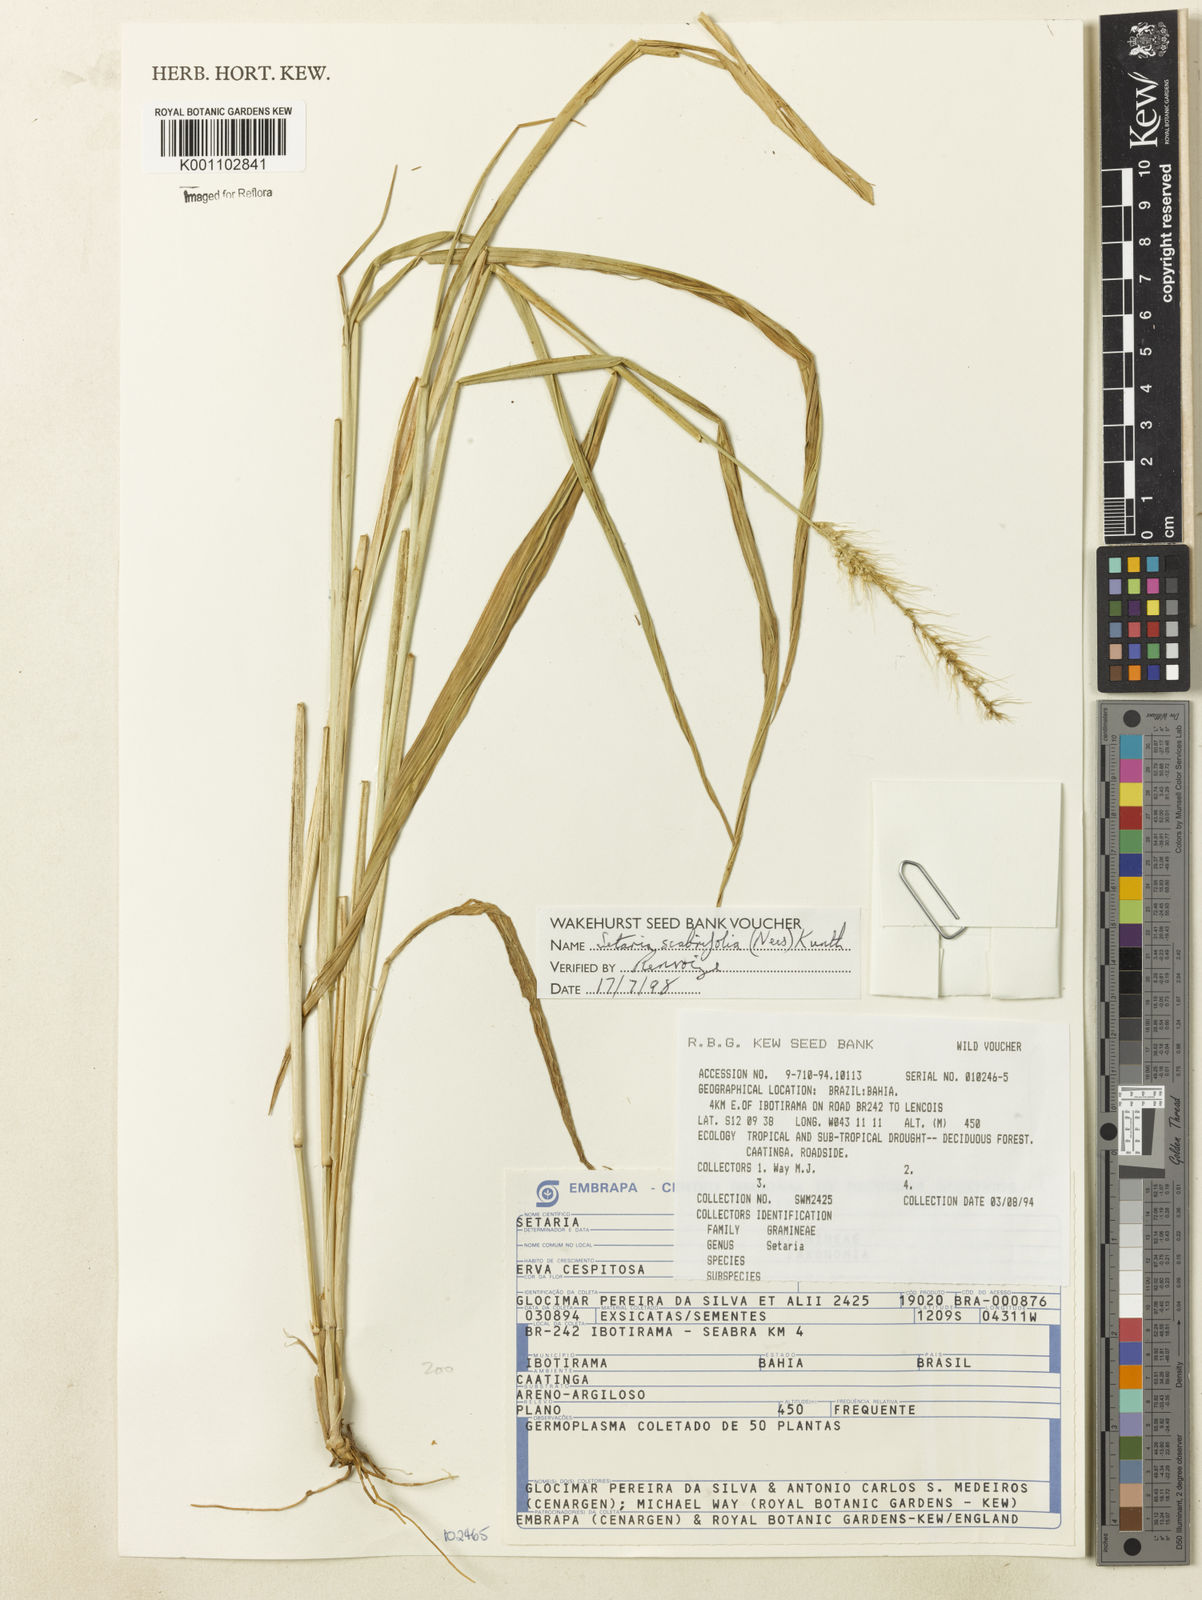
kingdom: Plantae
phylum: Tracheophyta
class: Liliopsida
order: Poales
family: Poaceae
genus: Setaria
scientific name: Setaria scabrifolia
